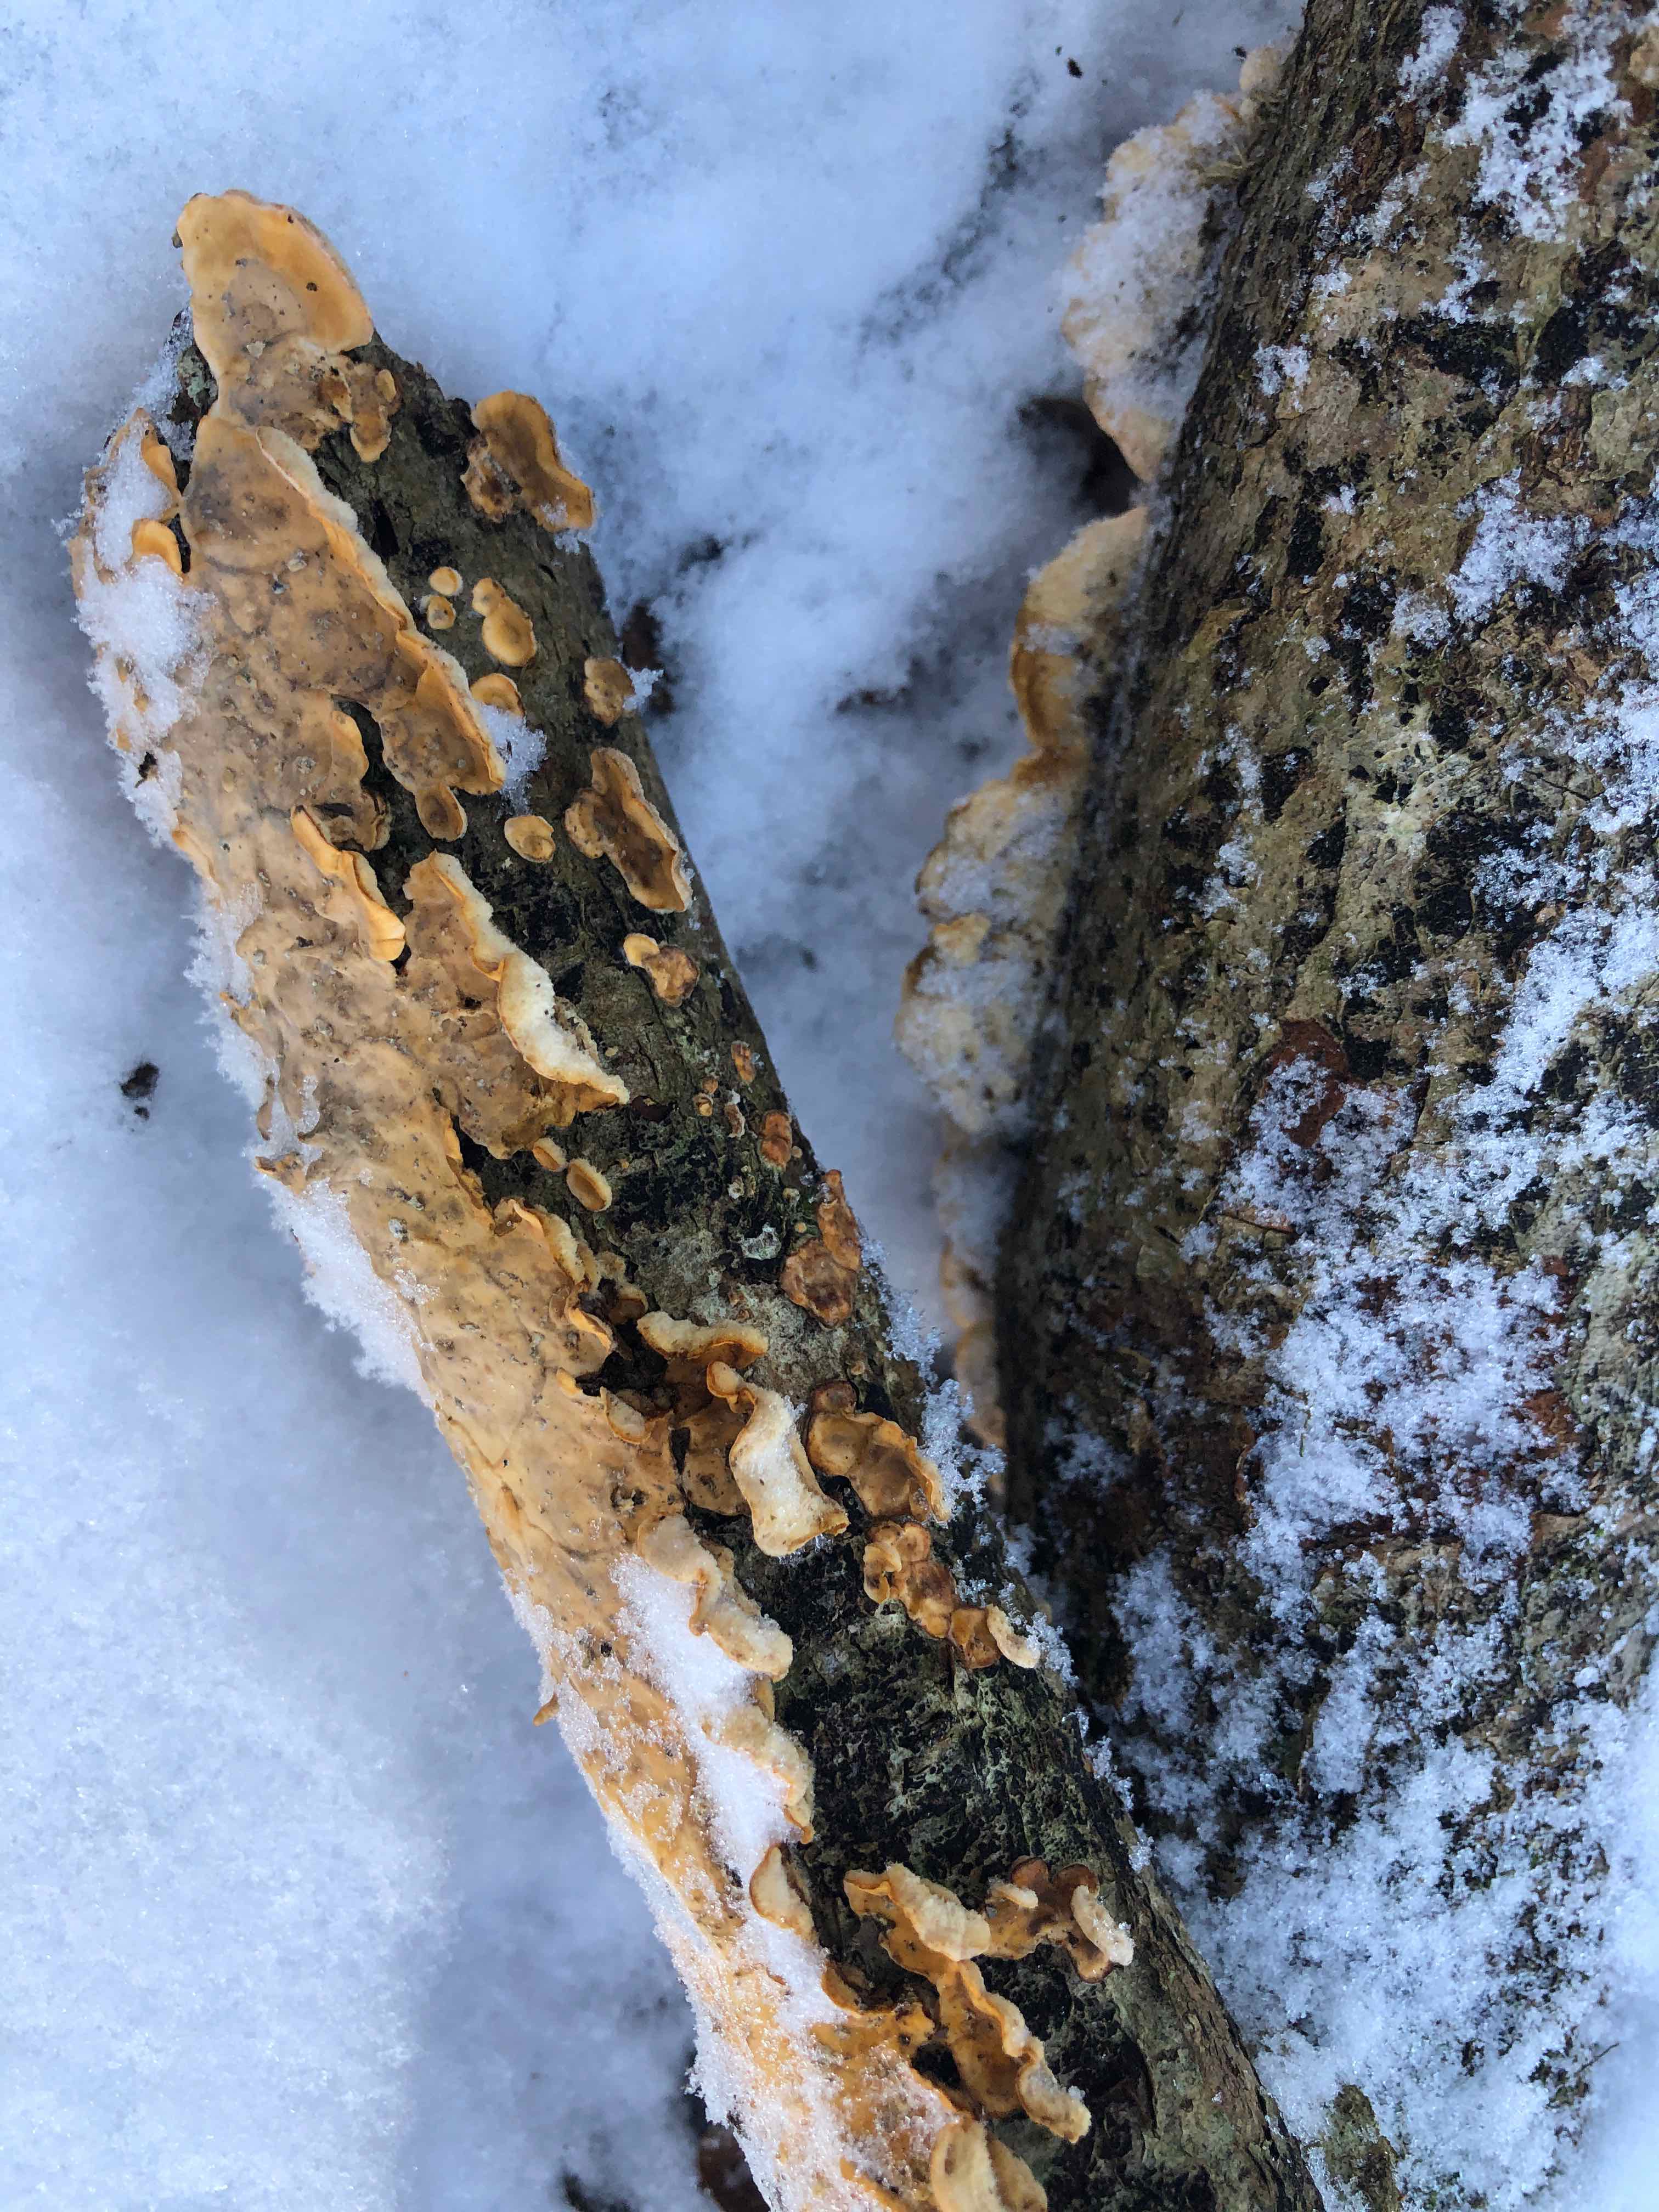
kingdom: Fungi
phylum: Basidiomycota
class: Agaricomycetes
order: Russulales
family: Stereaceae
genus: Stereum
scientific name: Stereum hirsutum
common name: håret lædersvamp
